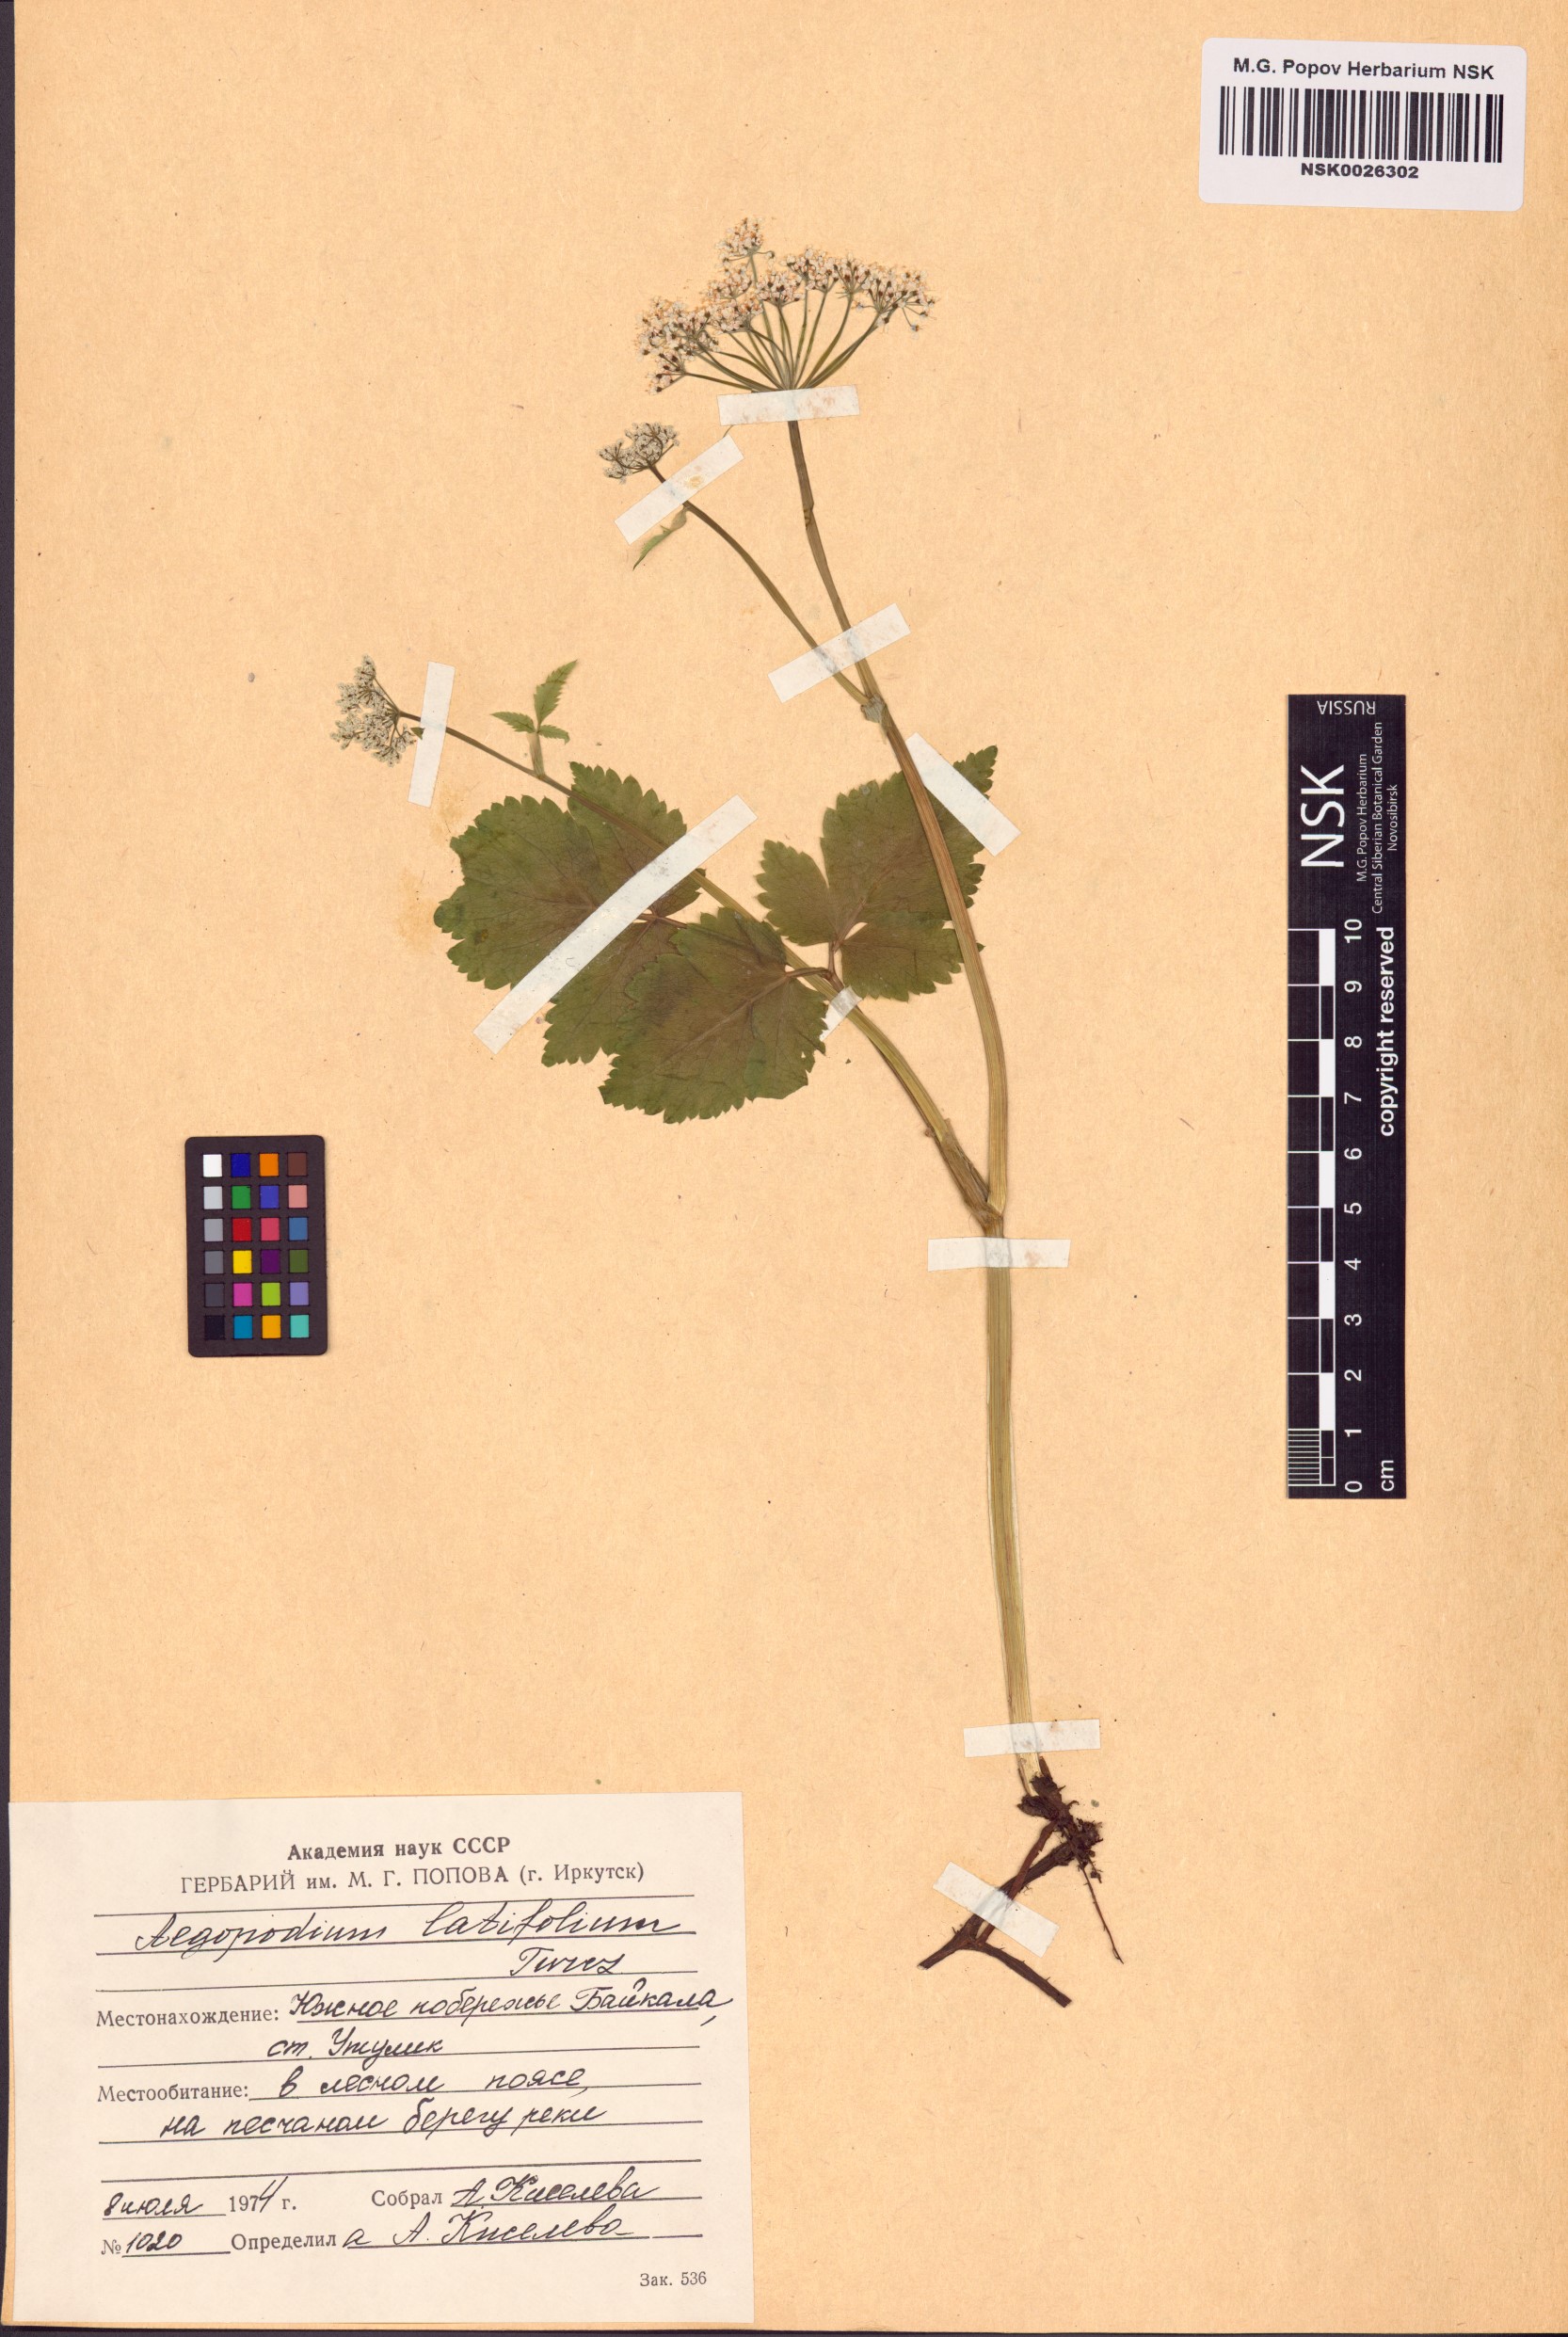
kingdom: Plantae
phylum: Tracheophyta
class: Magnoliopsida
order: Apiales
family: Apiaceae
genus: Aegopodium
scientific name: Aegopodium latifolium
